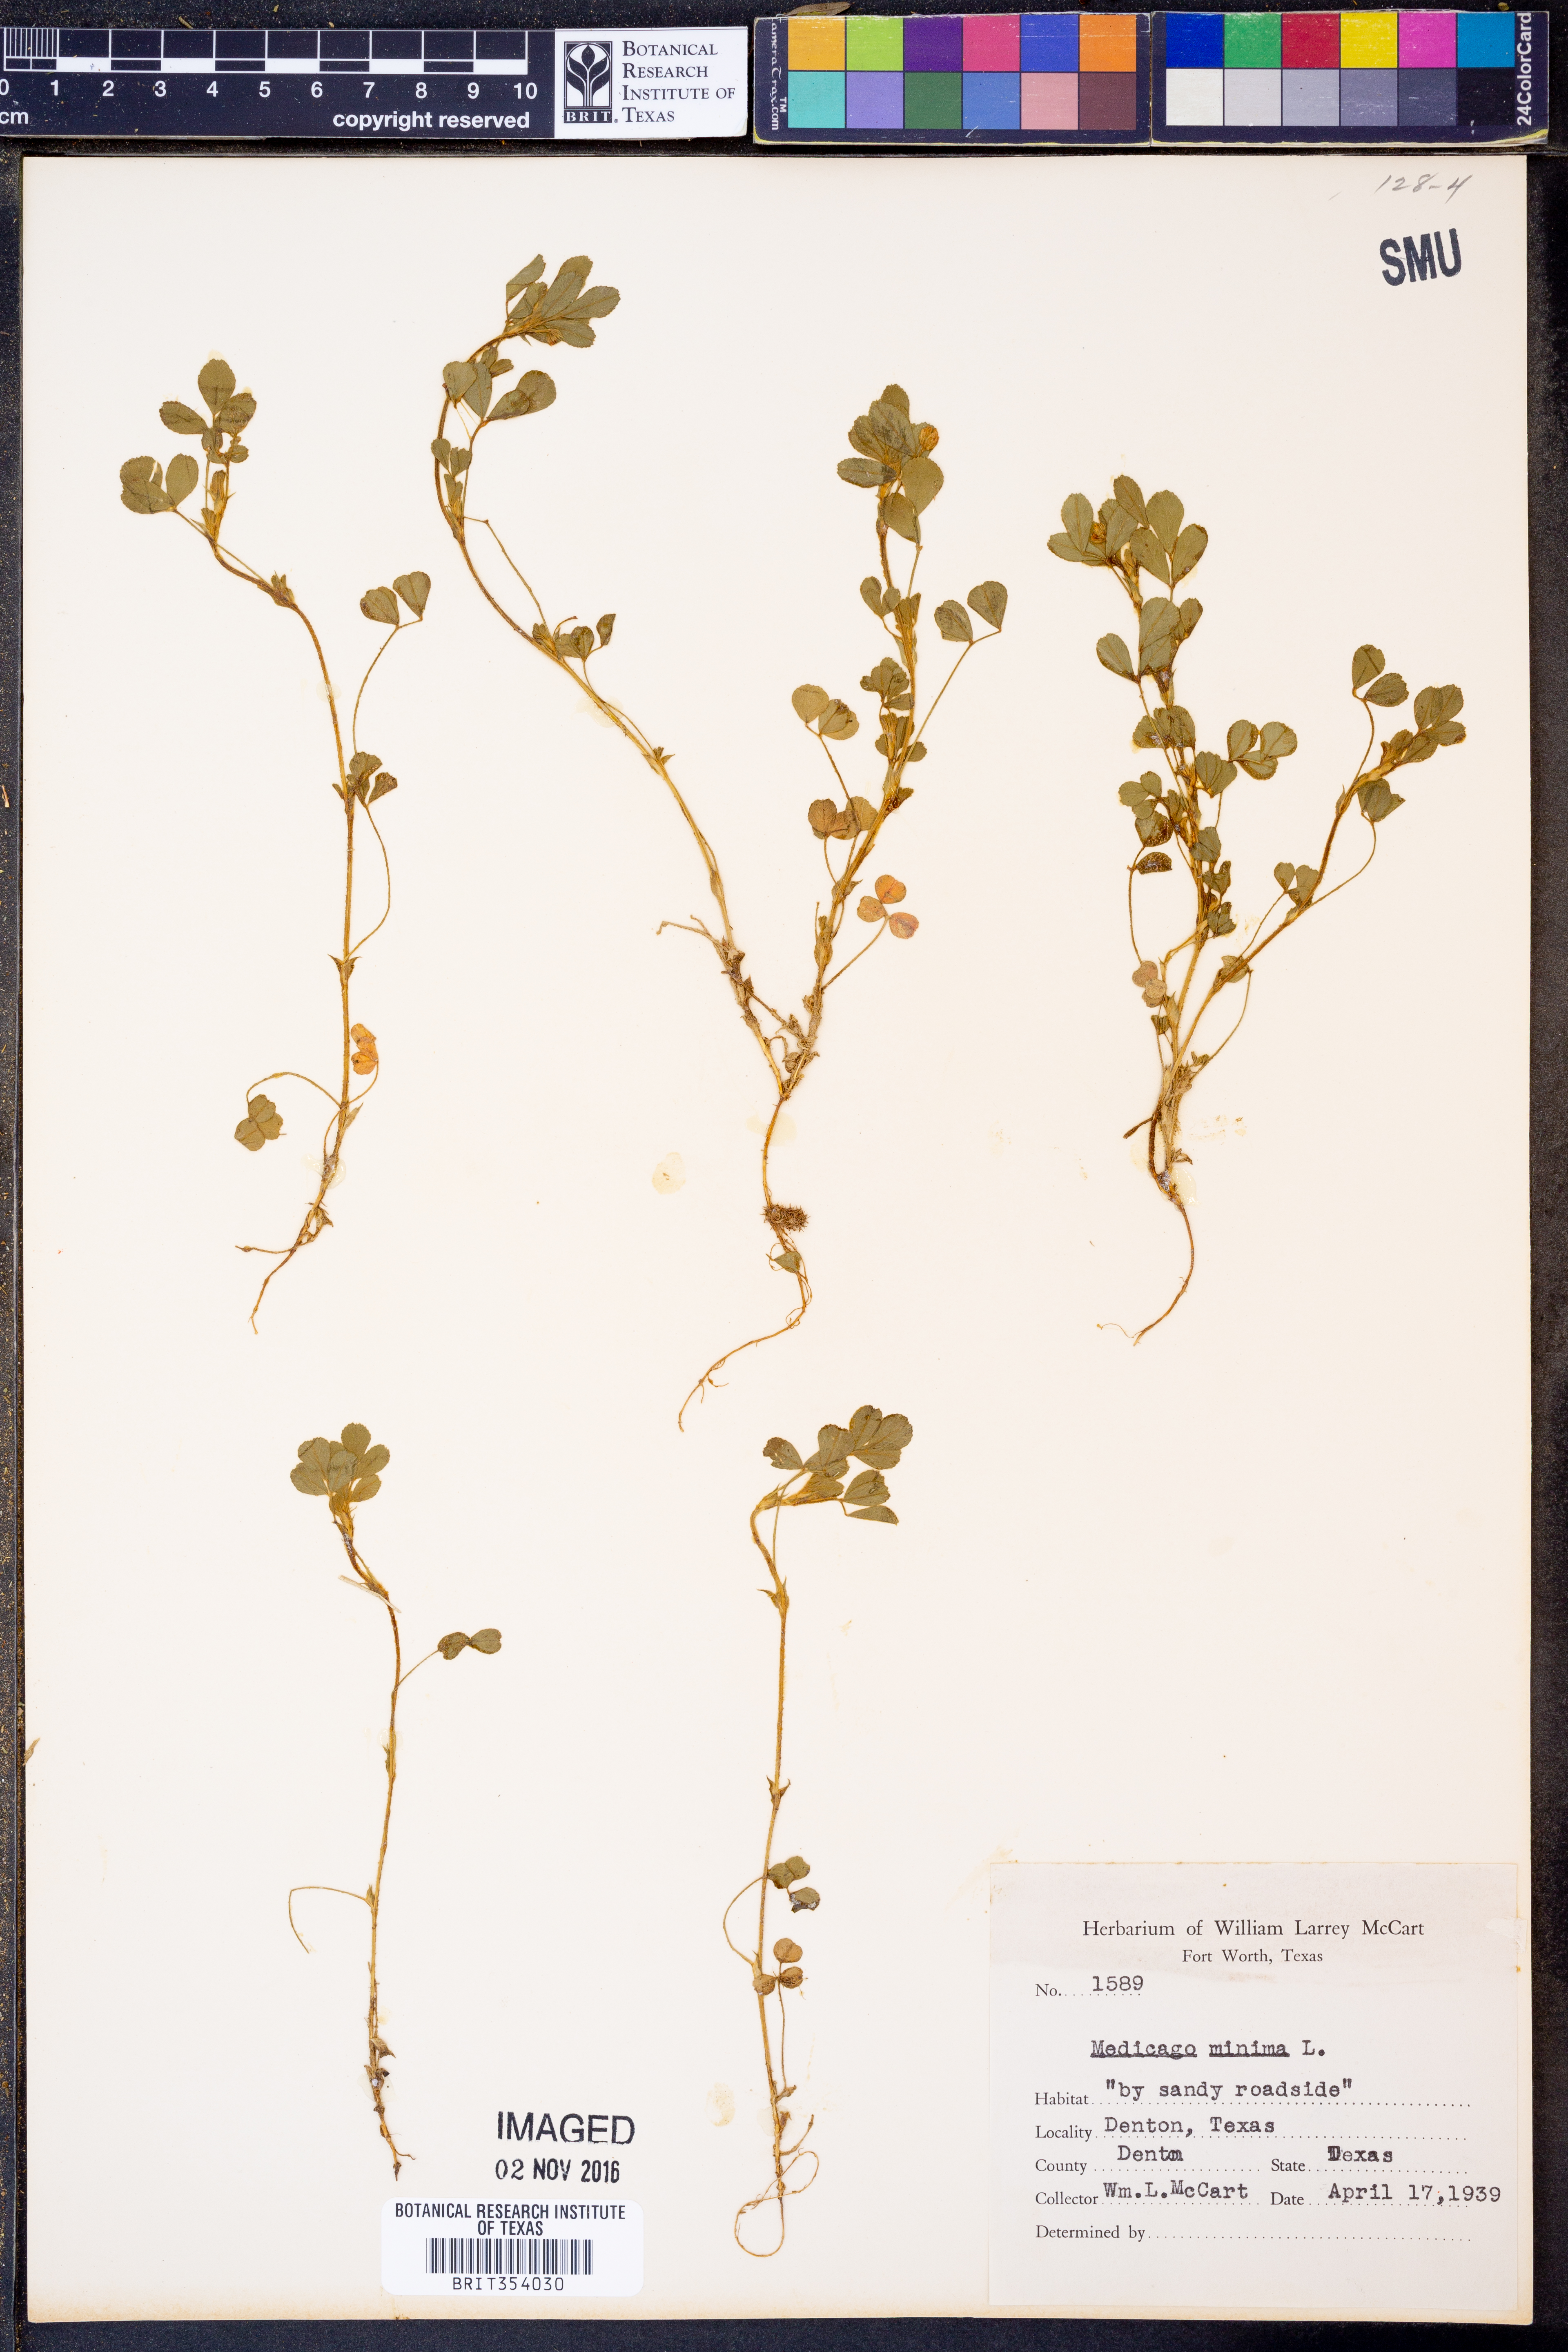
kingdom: Plantae
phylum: Tracheophyta
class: Magnoliopsida
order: Fabales
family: Fabaceae
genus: Medicago
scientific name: Medicago minima
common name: Little bur-clover
